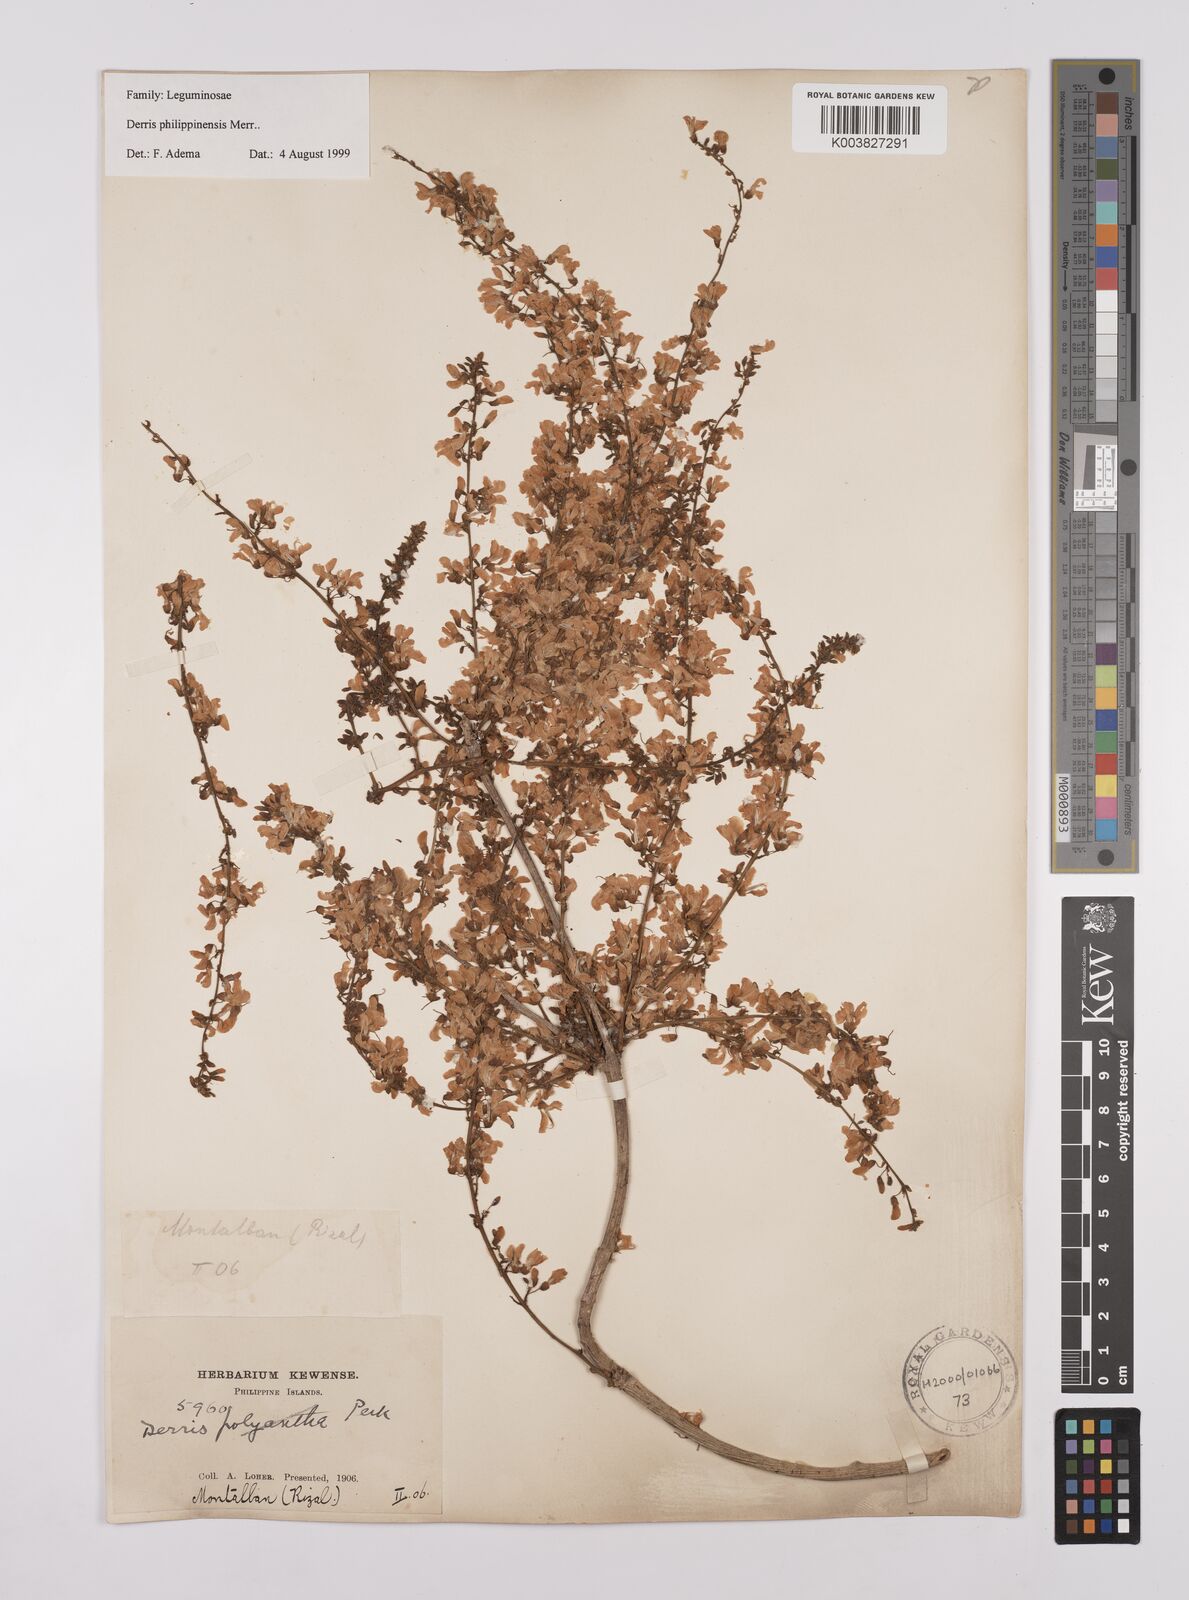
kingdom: Plantae
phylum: Tracheophyta
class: Magnoliopsida
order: Fabales
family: Fabaceae
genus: Brachypterum
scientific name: Brachypterum philippinense
